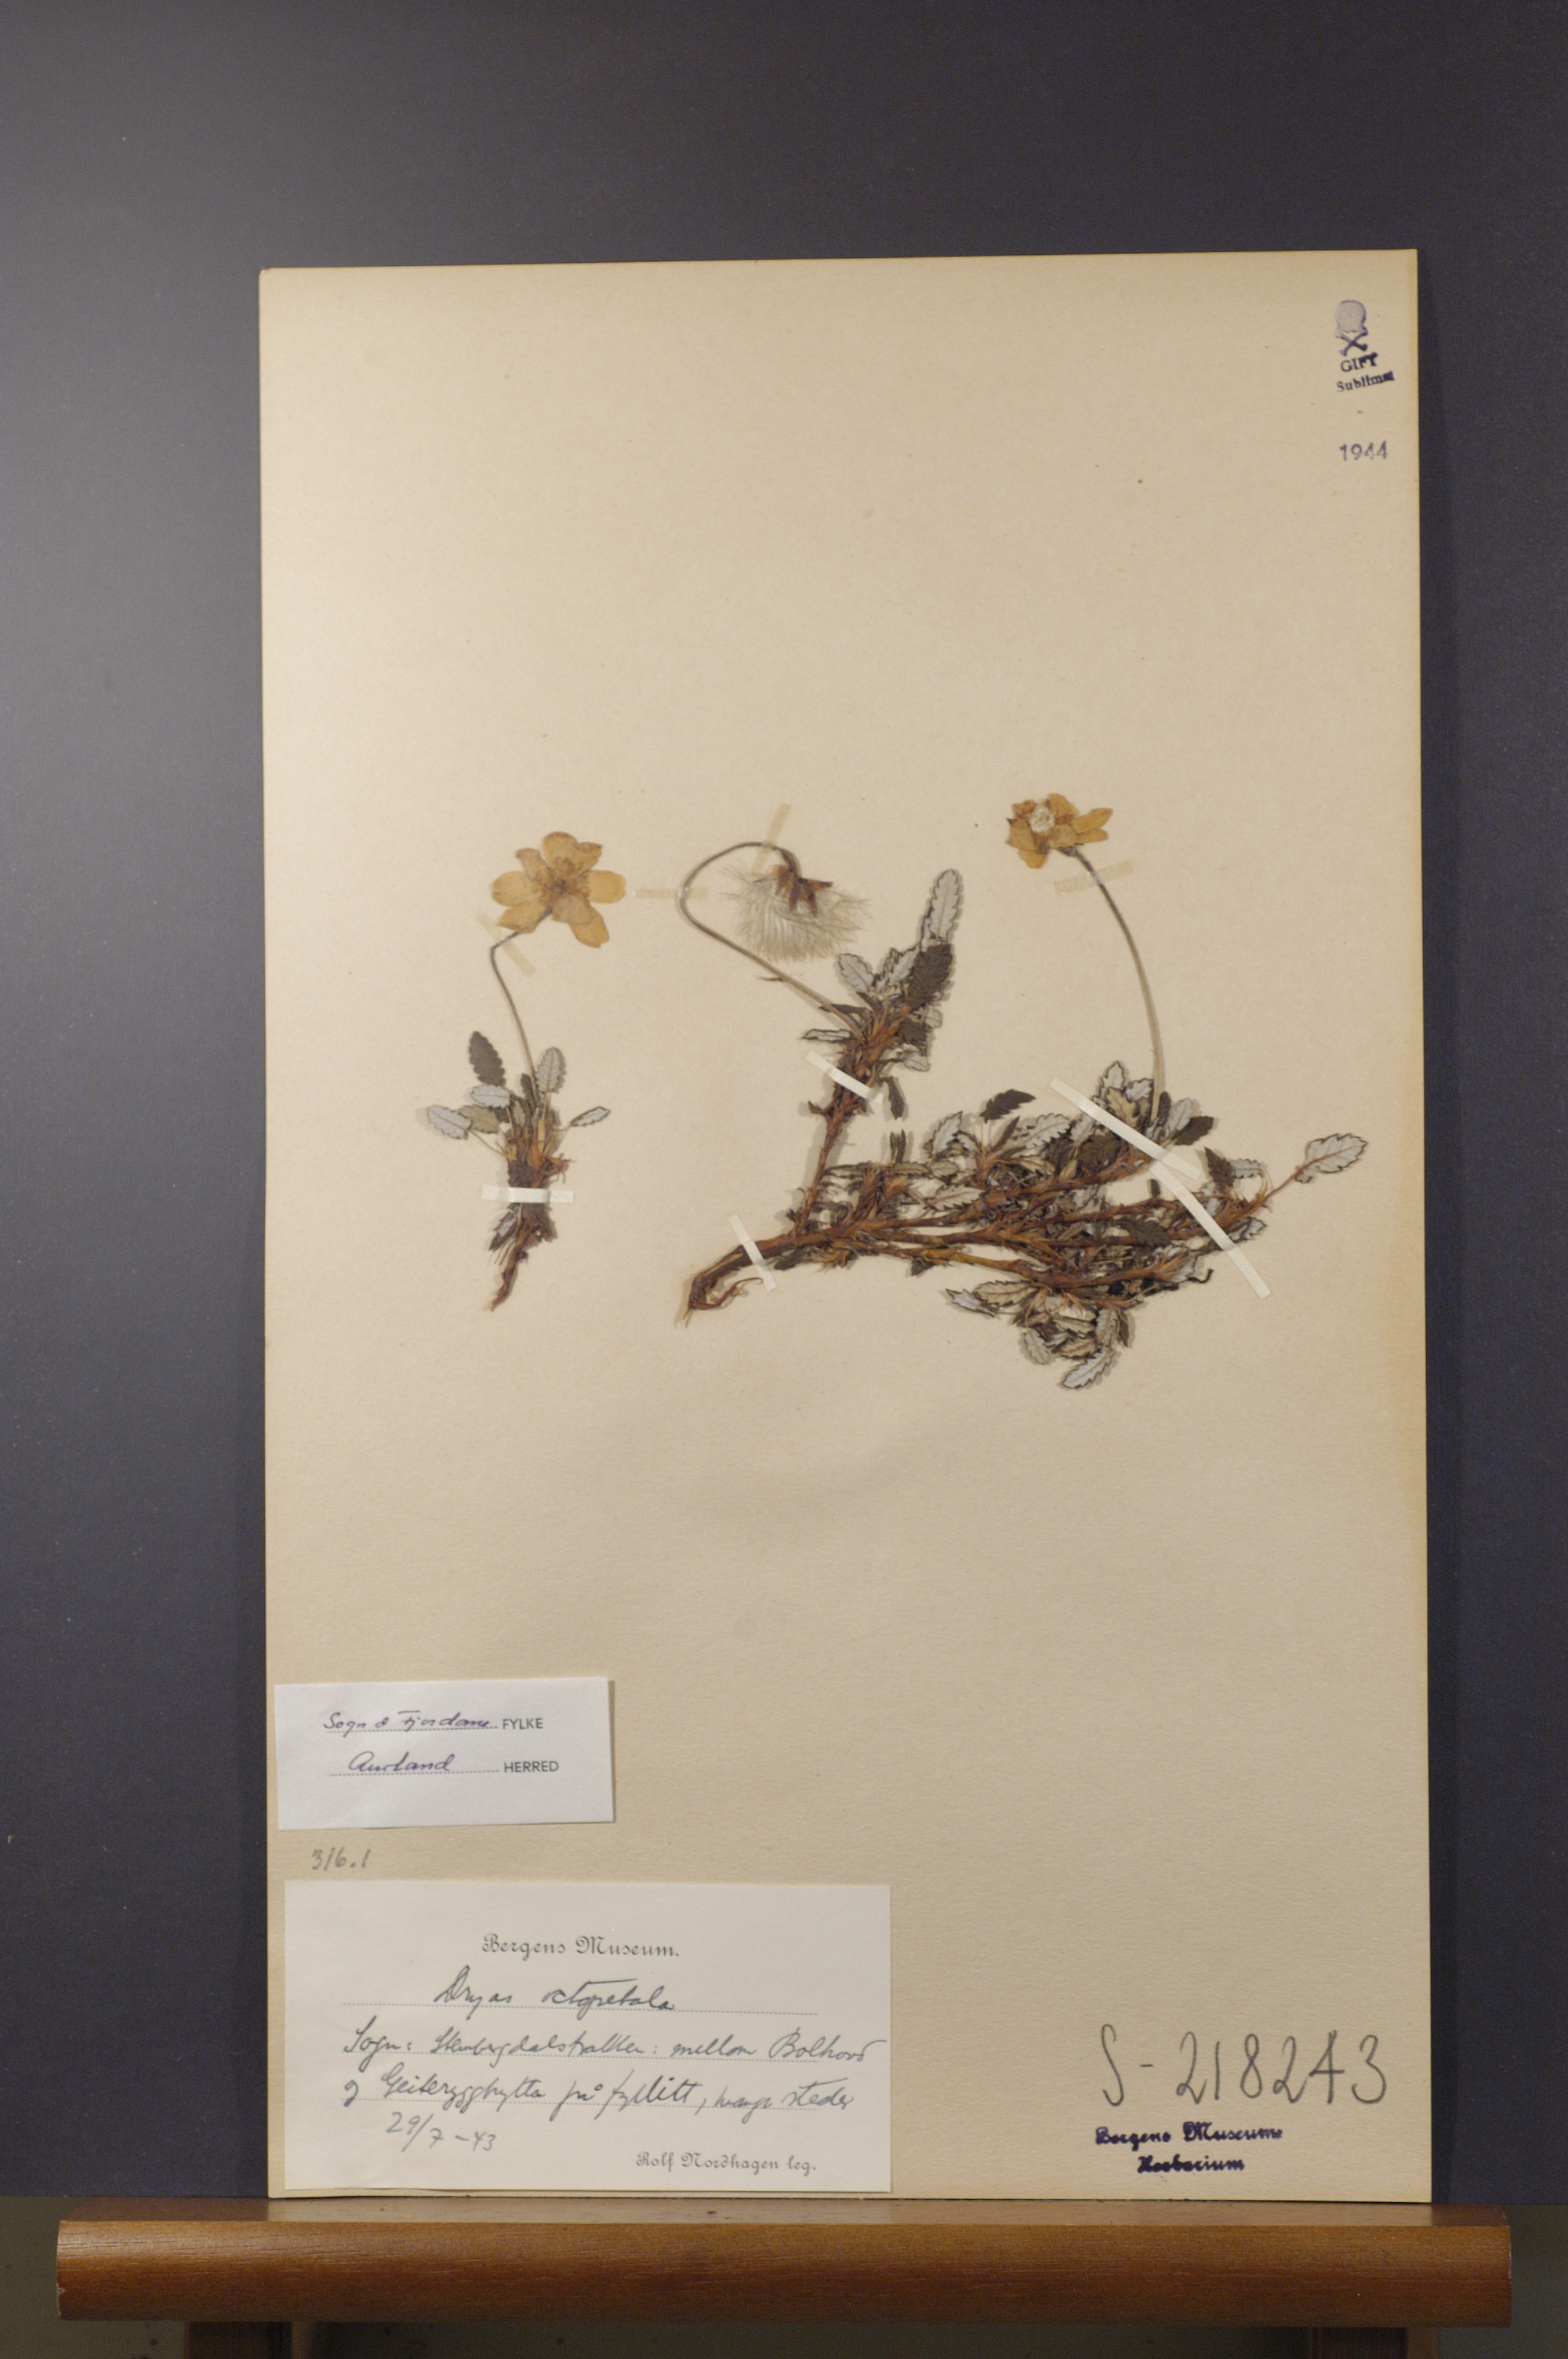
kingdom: Plantae
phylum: Tracheophyta
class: Magnoliopsida
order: Rosales
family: Rosaceae
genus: Dryas
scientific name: Dryas octopetala
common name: Eight-petal mountain-avens
